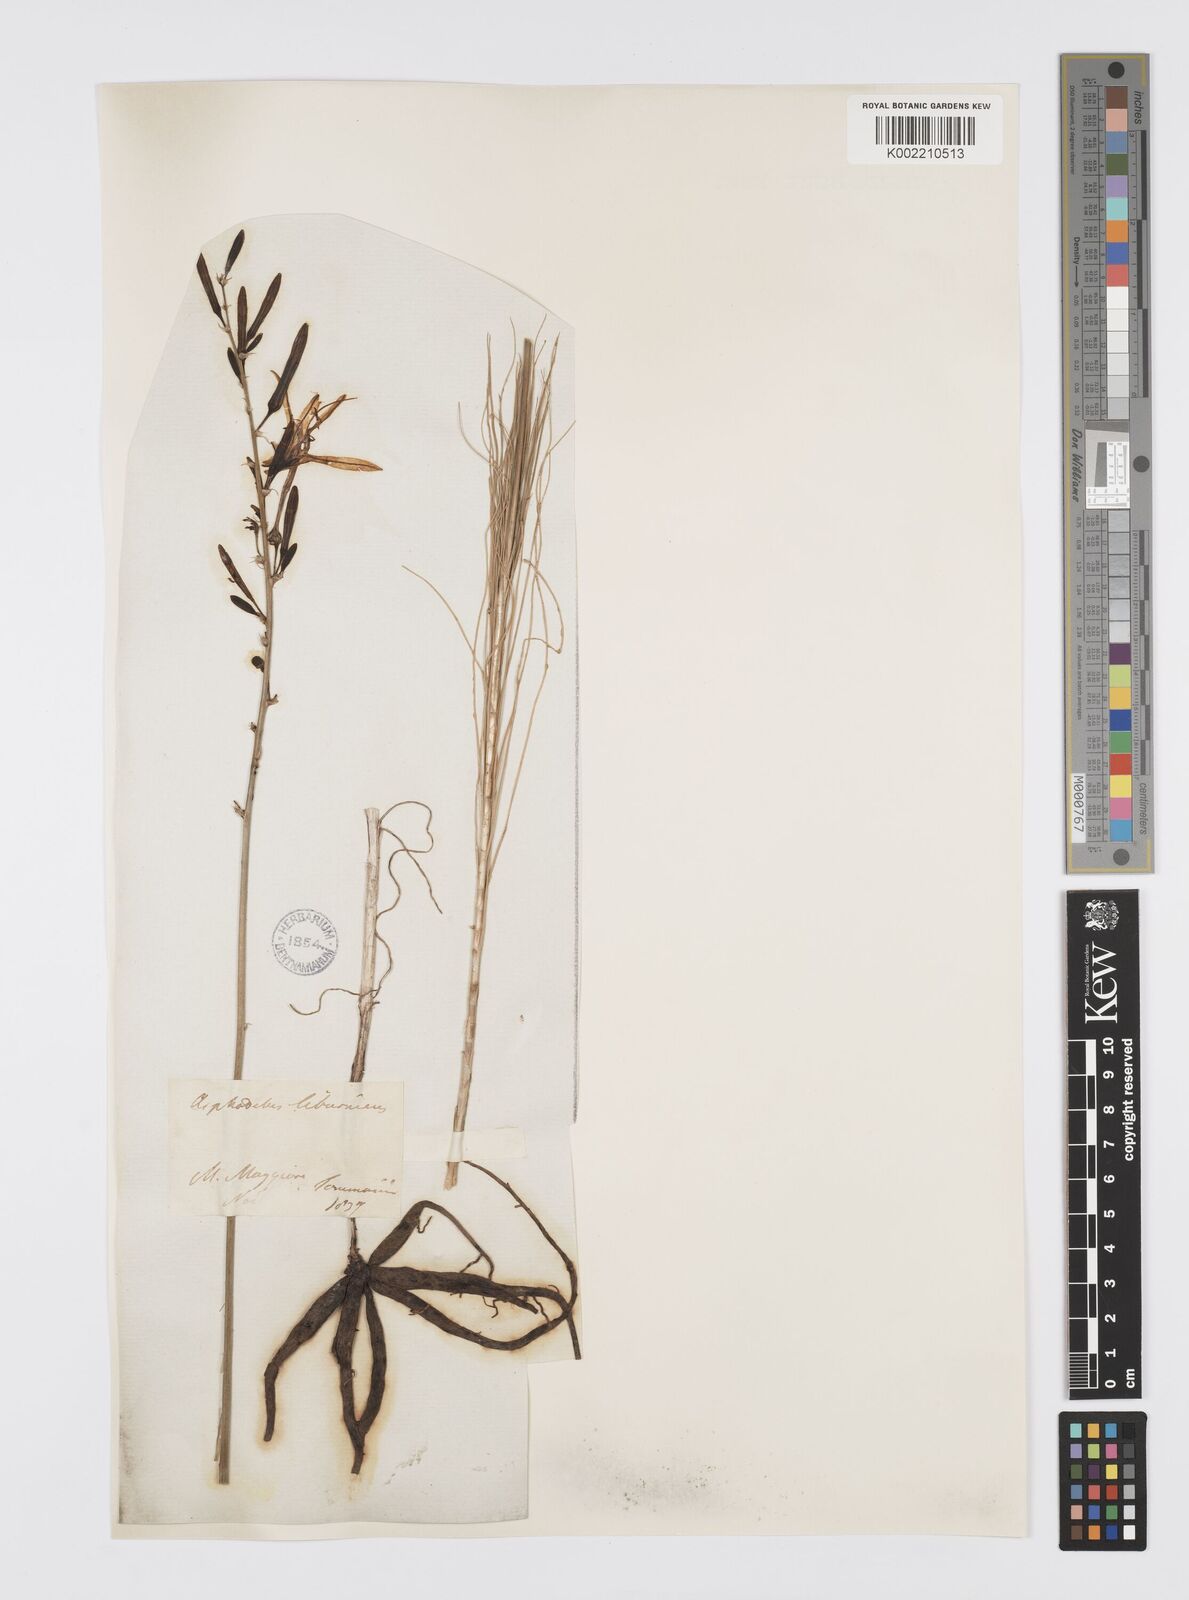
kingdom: Plantae
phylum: Tracheophyta
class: Liliopsida
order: Asparagales
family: Asphodelaceae
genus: Asphodeline
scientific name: Asphodeline liburnica
